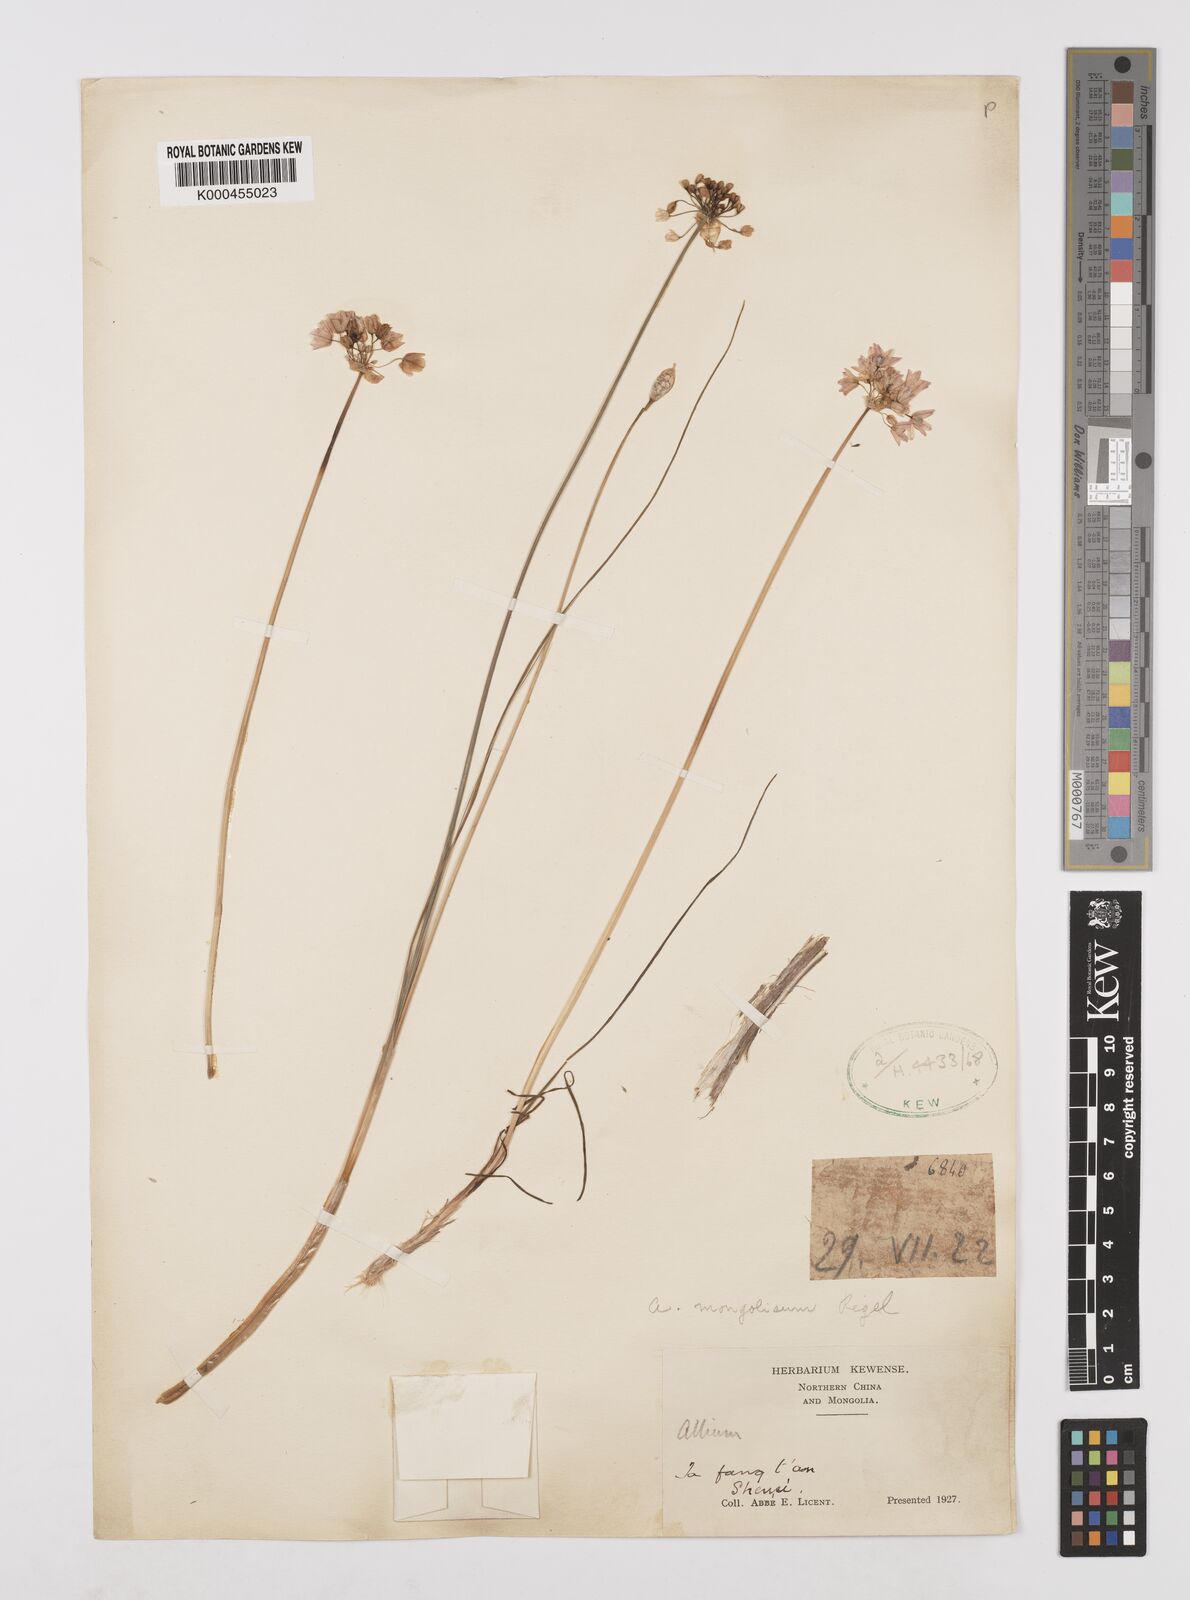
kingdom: Plantae
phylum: Tracheophyta
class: Liliopsida
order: Asparagales
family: Amaryllidaceae
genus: Allium
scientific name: Allium mongolicum
